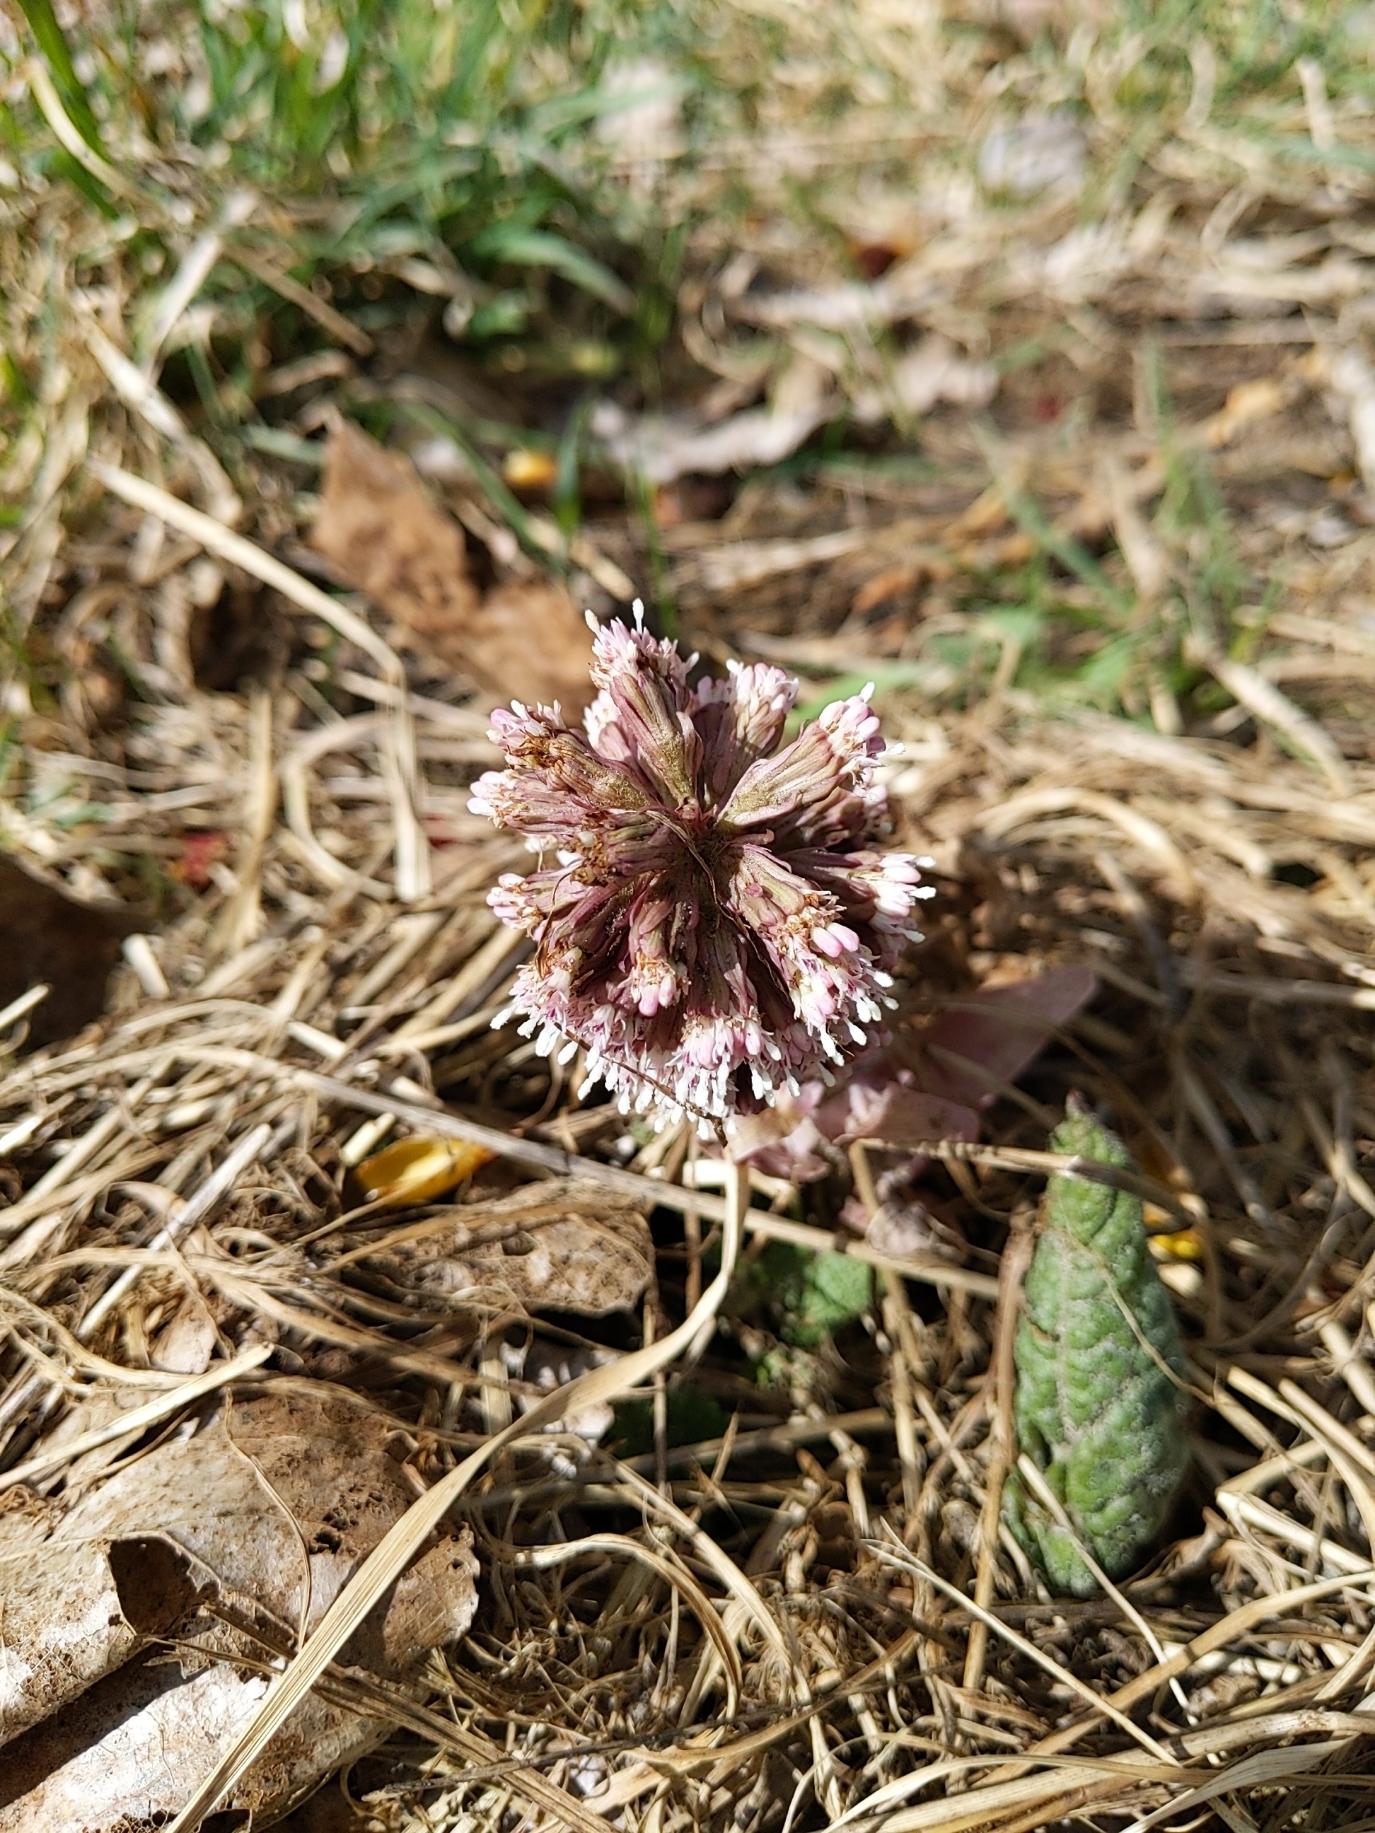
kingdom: Plantae
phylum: Tracheophyta
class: Magnoliopsida
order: Asterales
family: Asteraceae
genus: Petasites
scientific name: Petasites hybridus
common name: Rød hestehov
